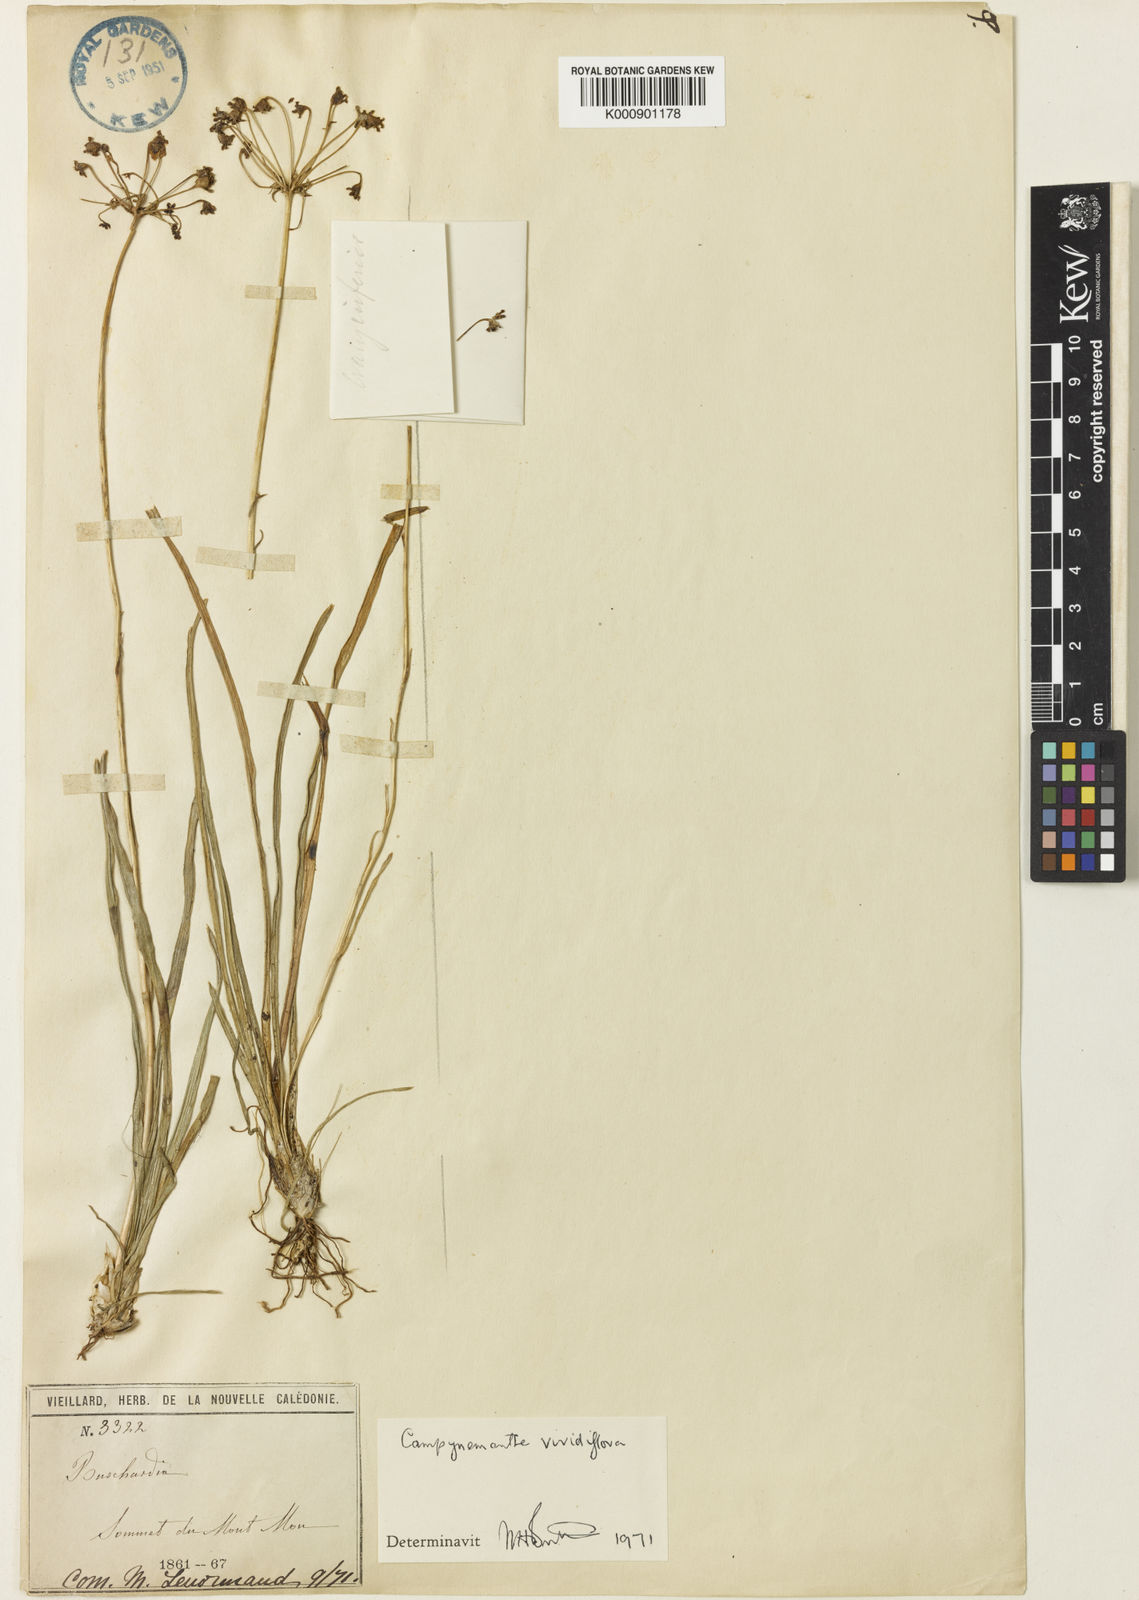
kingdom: Plantae
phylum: Tracheophyta
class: Liliopsida
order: Liliales
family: Campynemataceae
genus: Campynema
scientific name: Campynema
